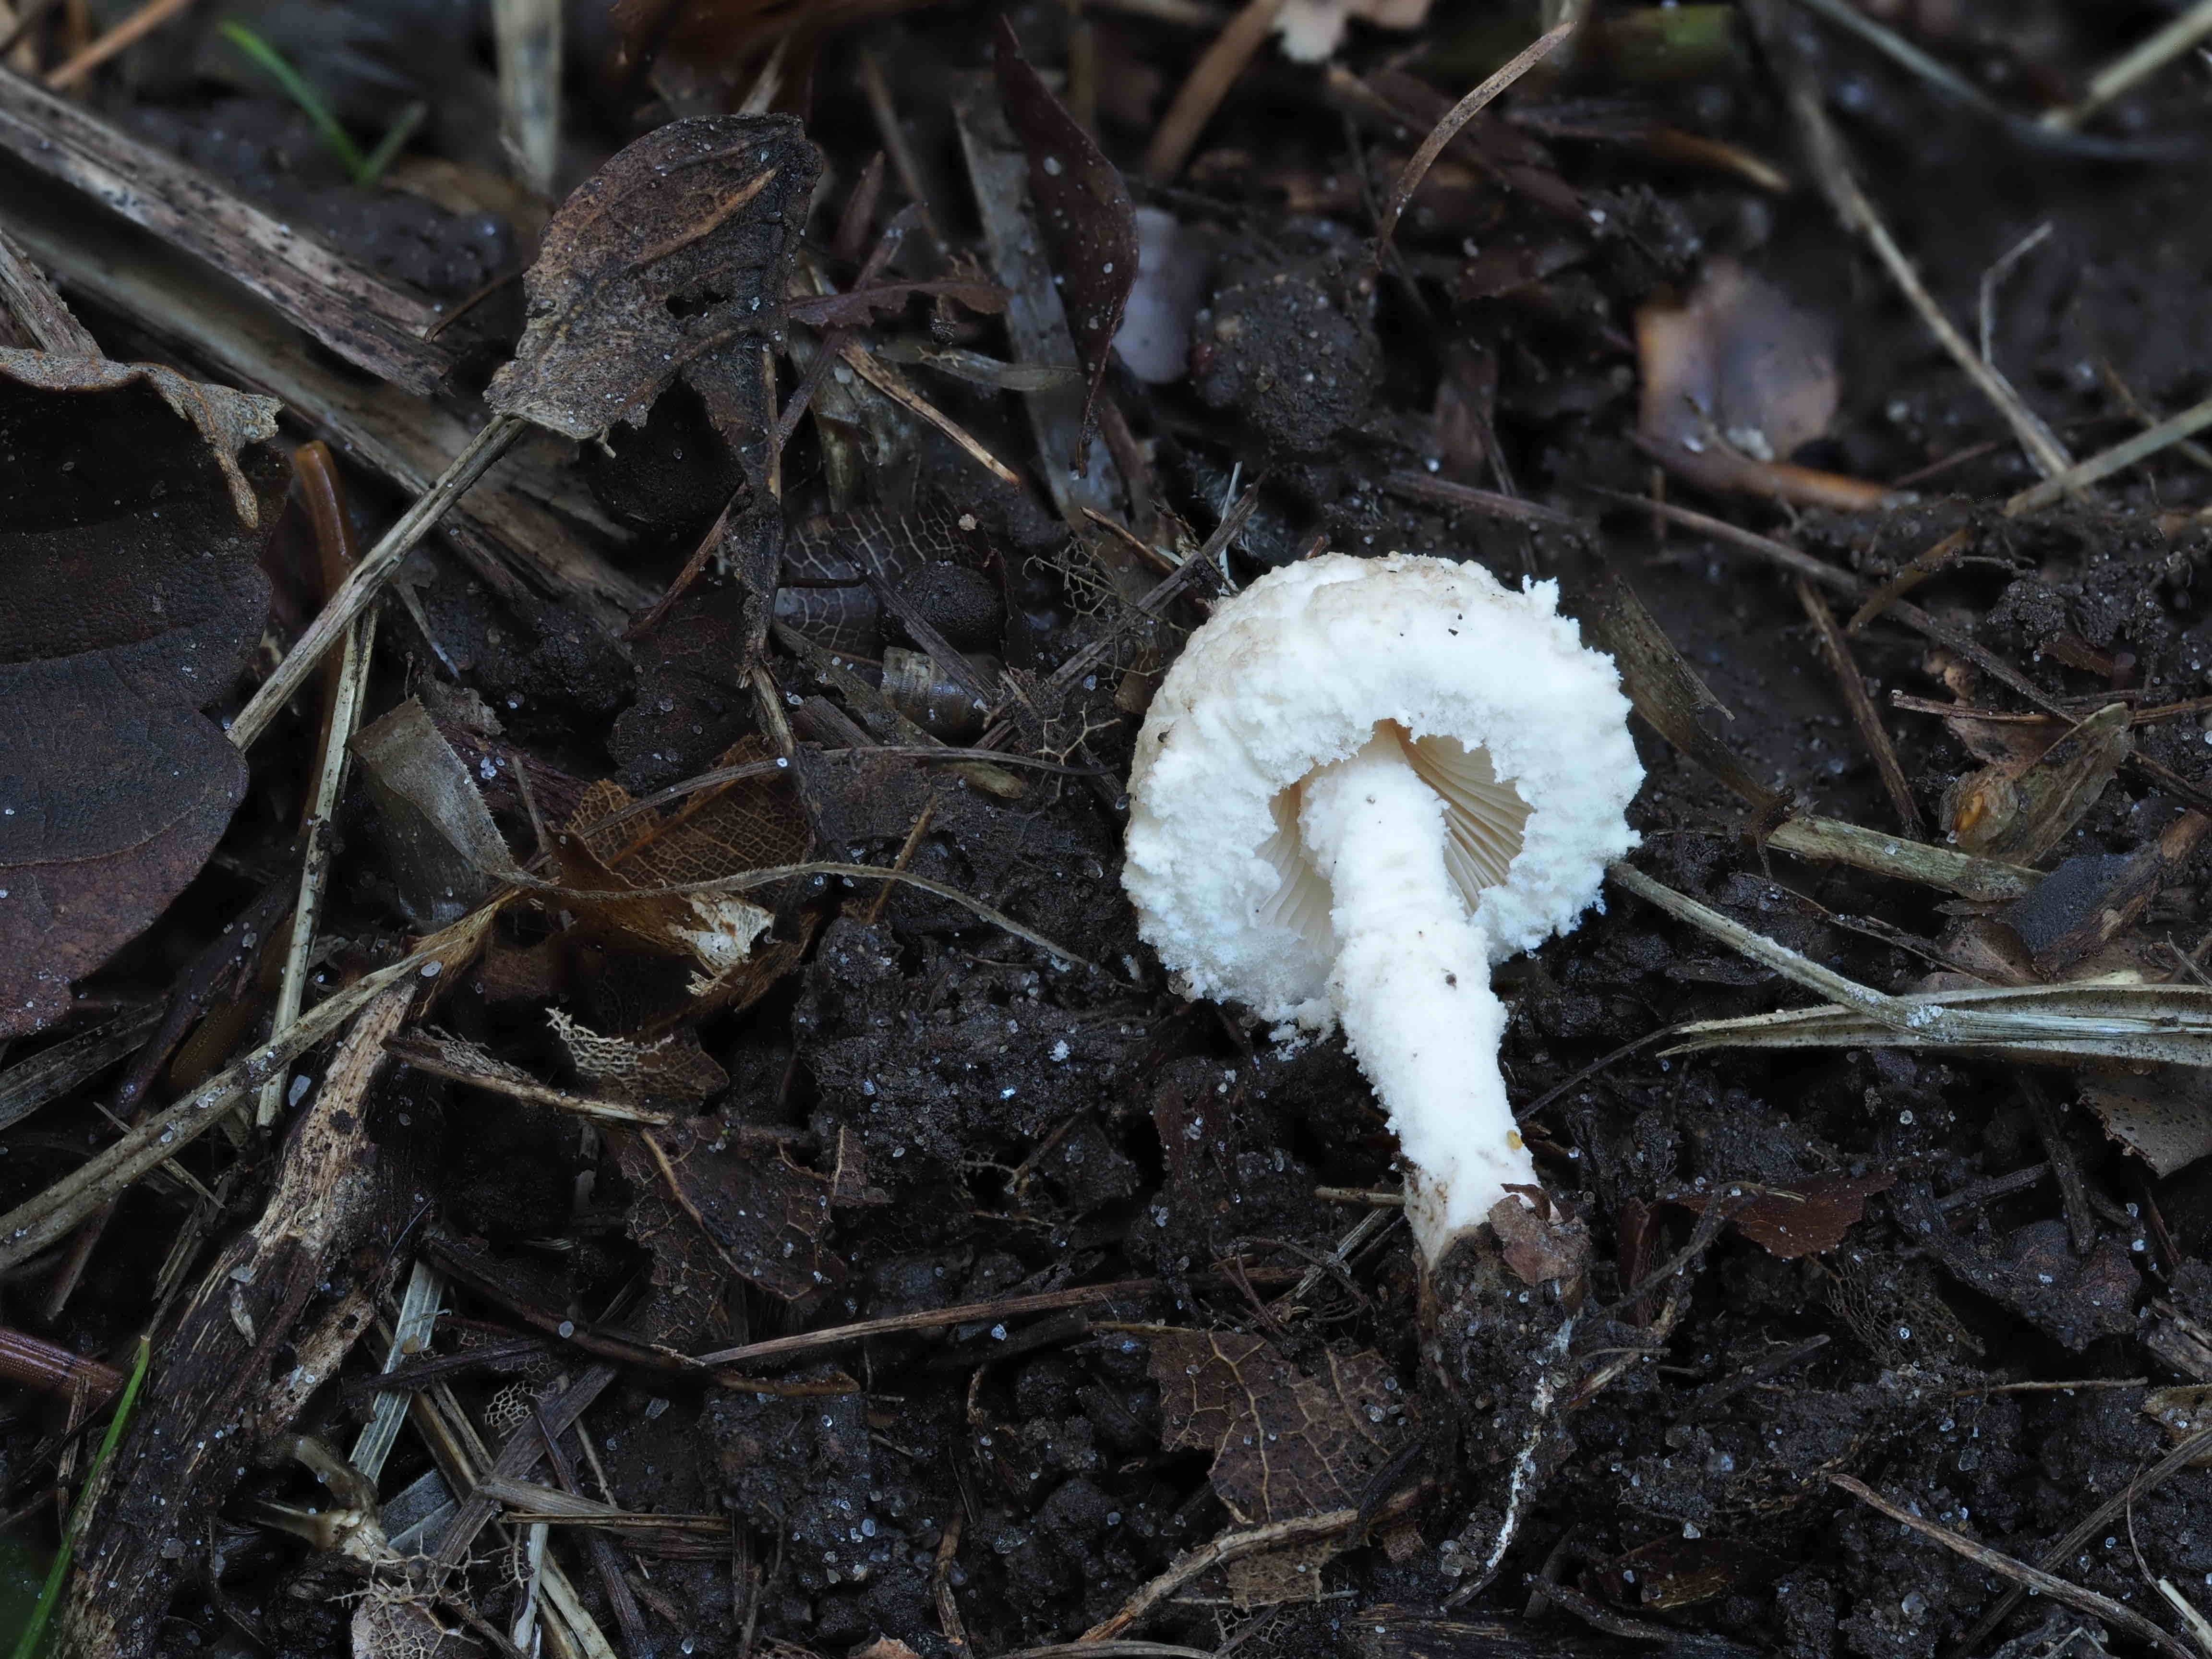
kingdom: Fungi
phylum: Basidiomycota
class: Agaricomycetes
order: Agaricales
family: Agaricaceae
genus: Cystolepiota
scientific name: Cystolepiota adulterina
